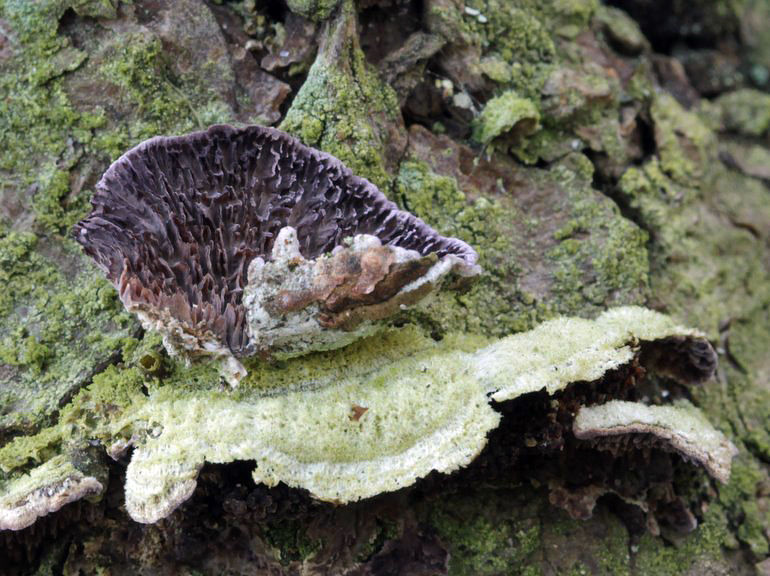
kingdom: Fungi
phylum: Basidiomycota
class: Agaricomycetes
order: Hymenochaetales
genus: Trichaptum
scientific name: Trichaptum fuscoviolaceum
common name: tandet violporesvamp
